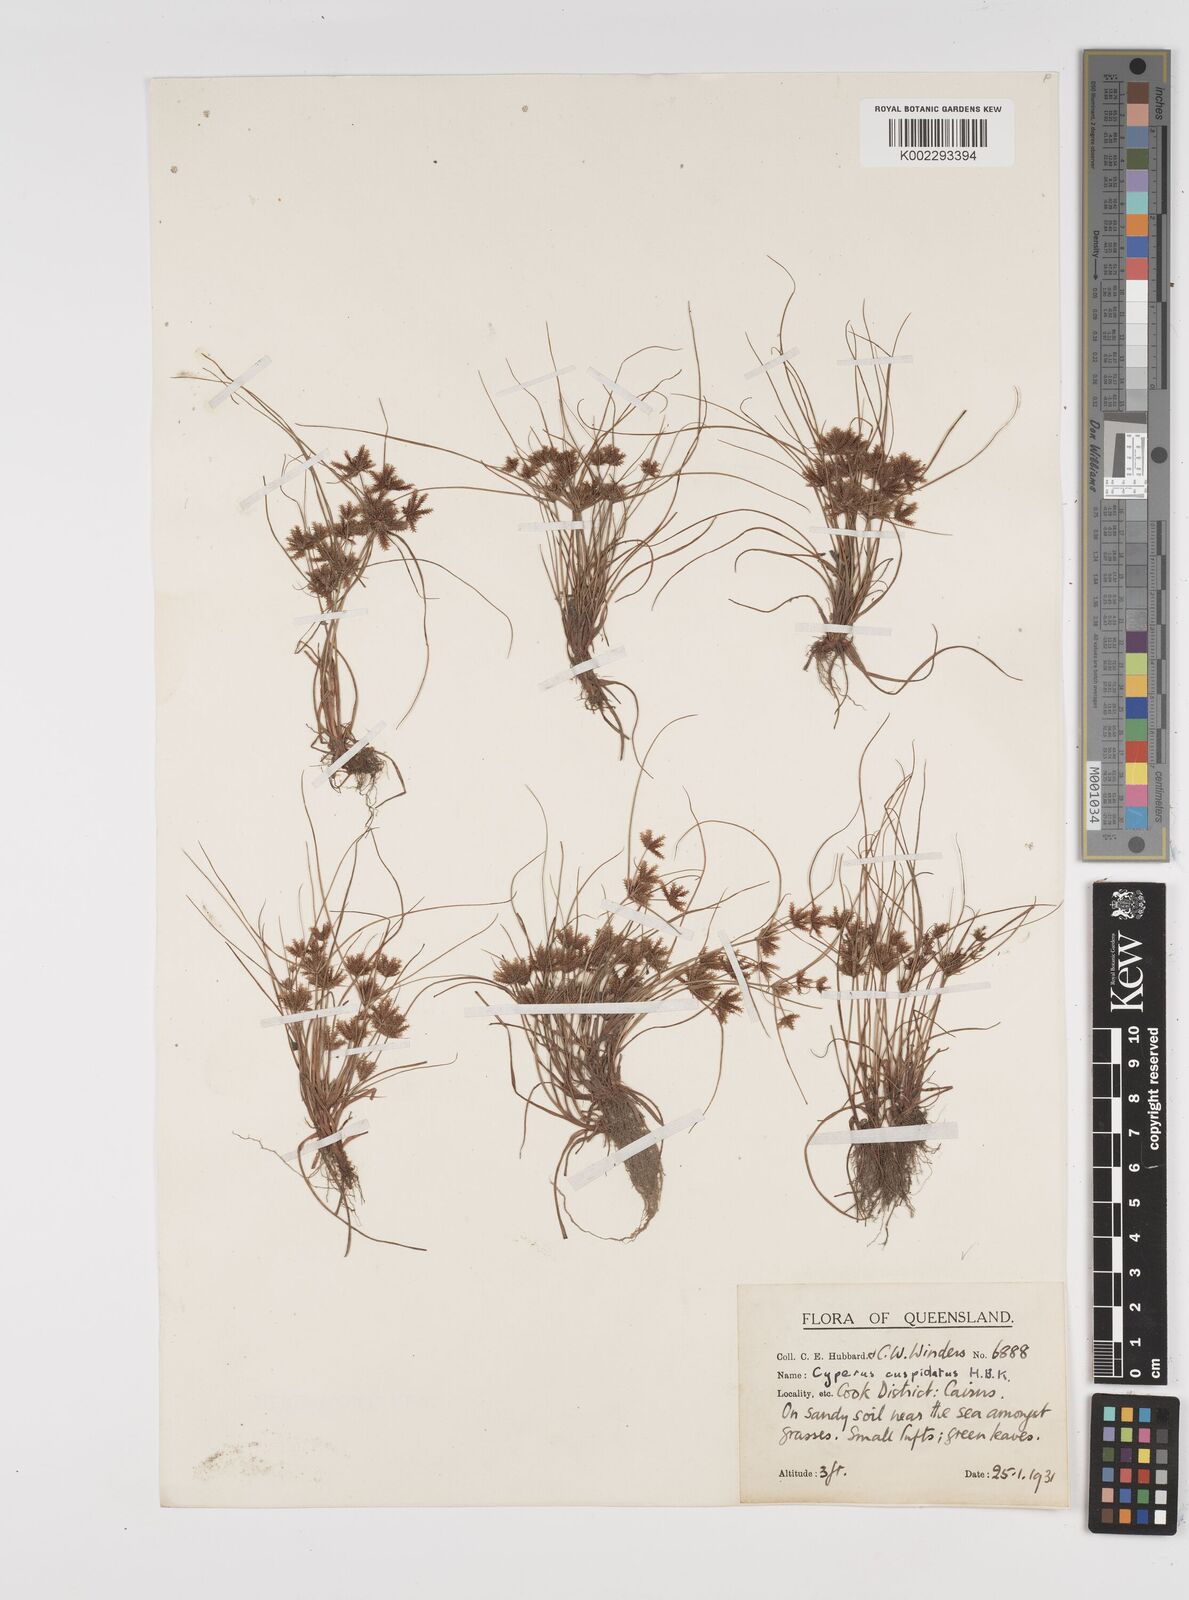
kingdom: Plantae
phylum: Tracheophyta
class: Liliopsida
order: Poales
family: Cyperaceae
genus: Cyperus
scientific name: Cyperus cuspidatus
